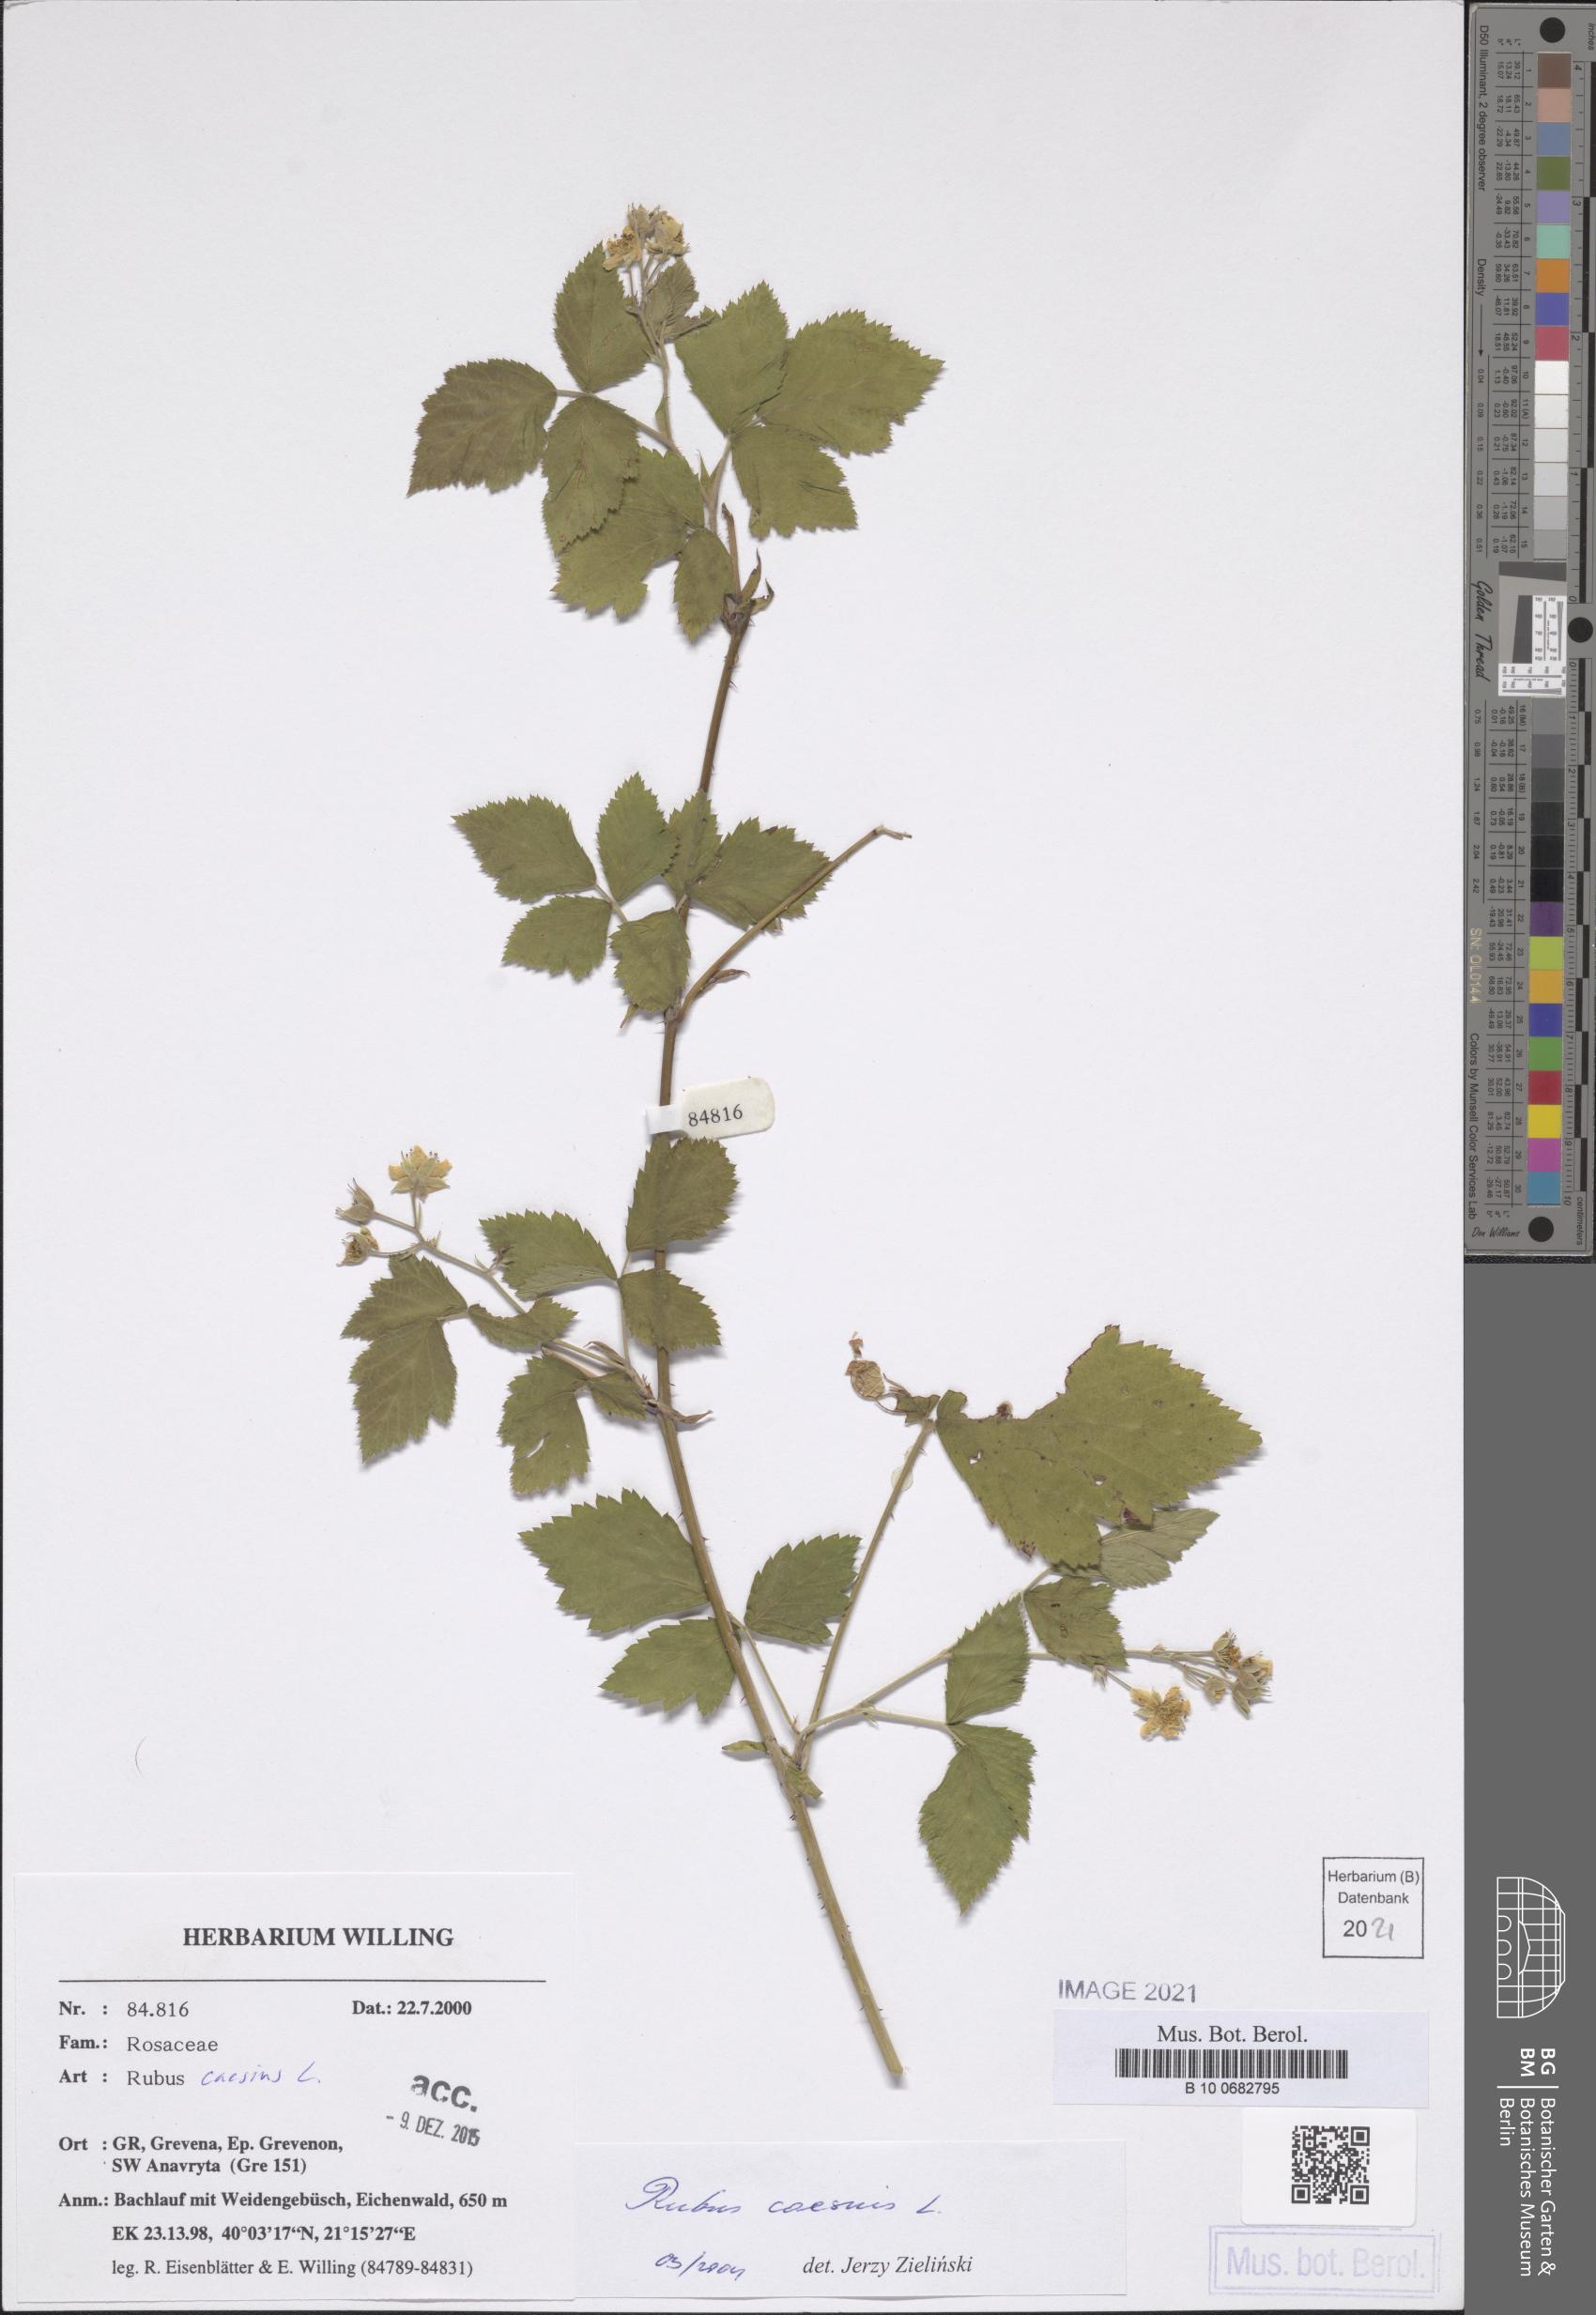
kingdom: Plantae
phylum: Tracheophyta
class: Magnoliopsida
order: Rosales
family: Rosaceae
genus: Rubus
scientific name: Rubus caesius
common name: Dewberry
